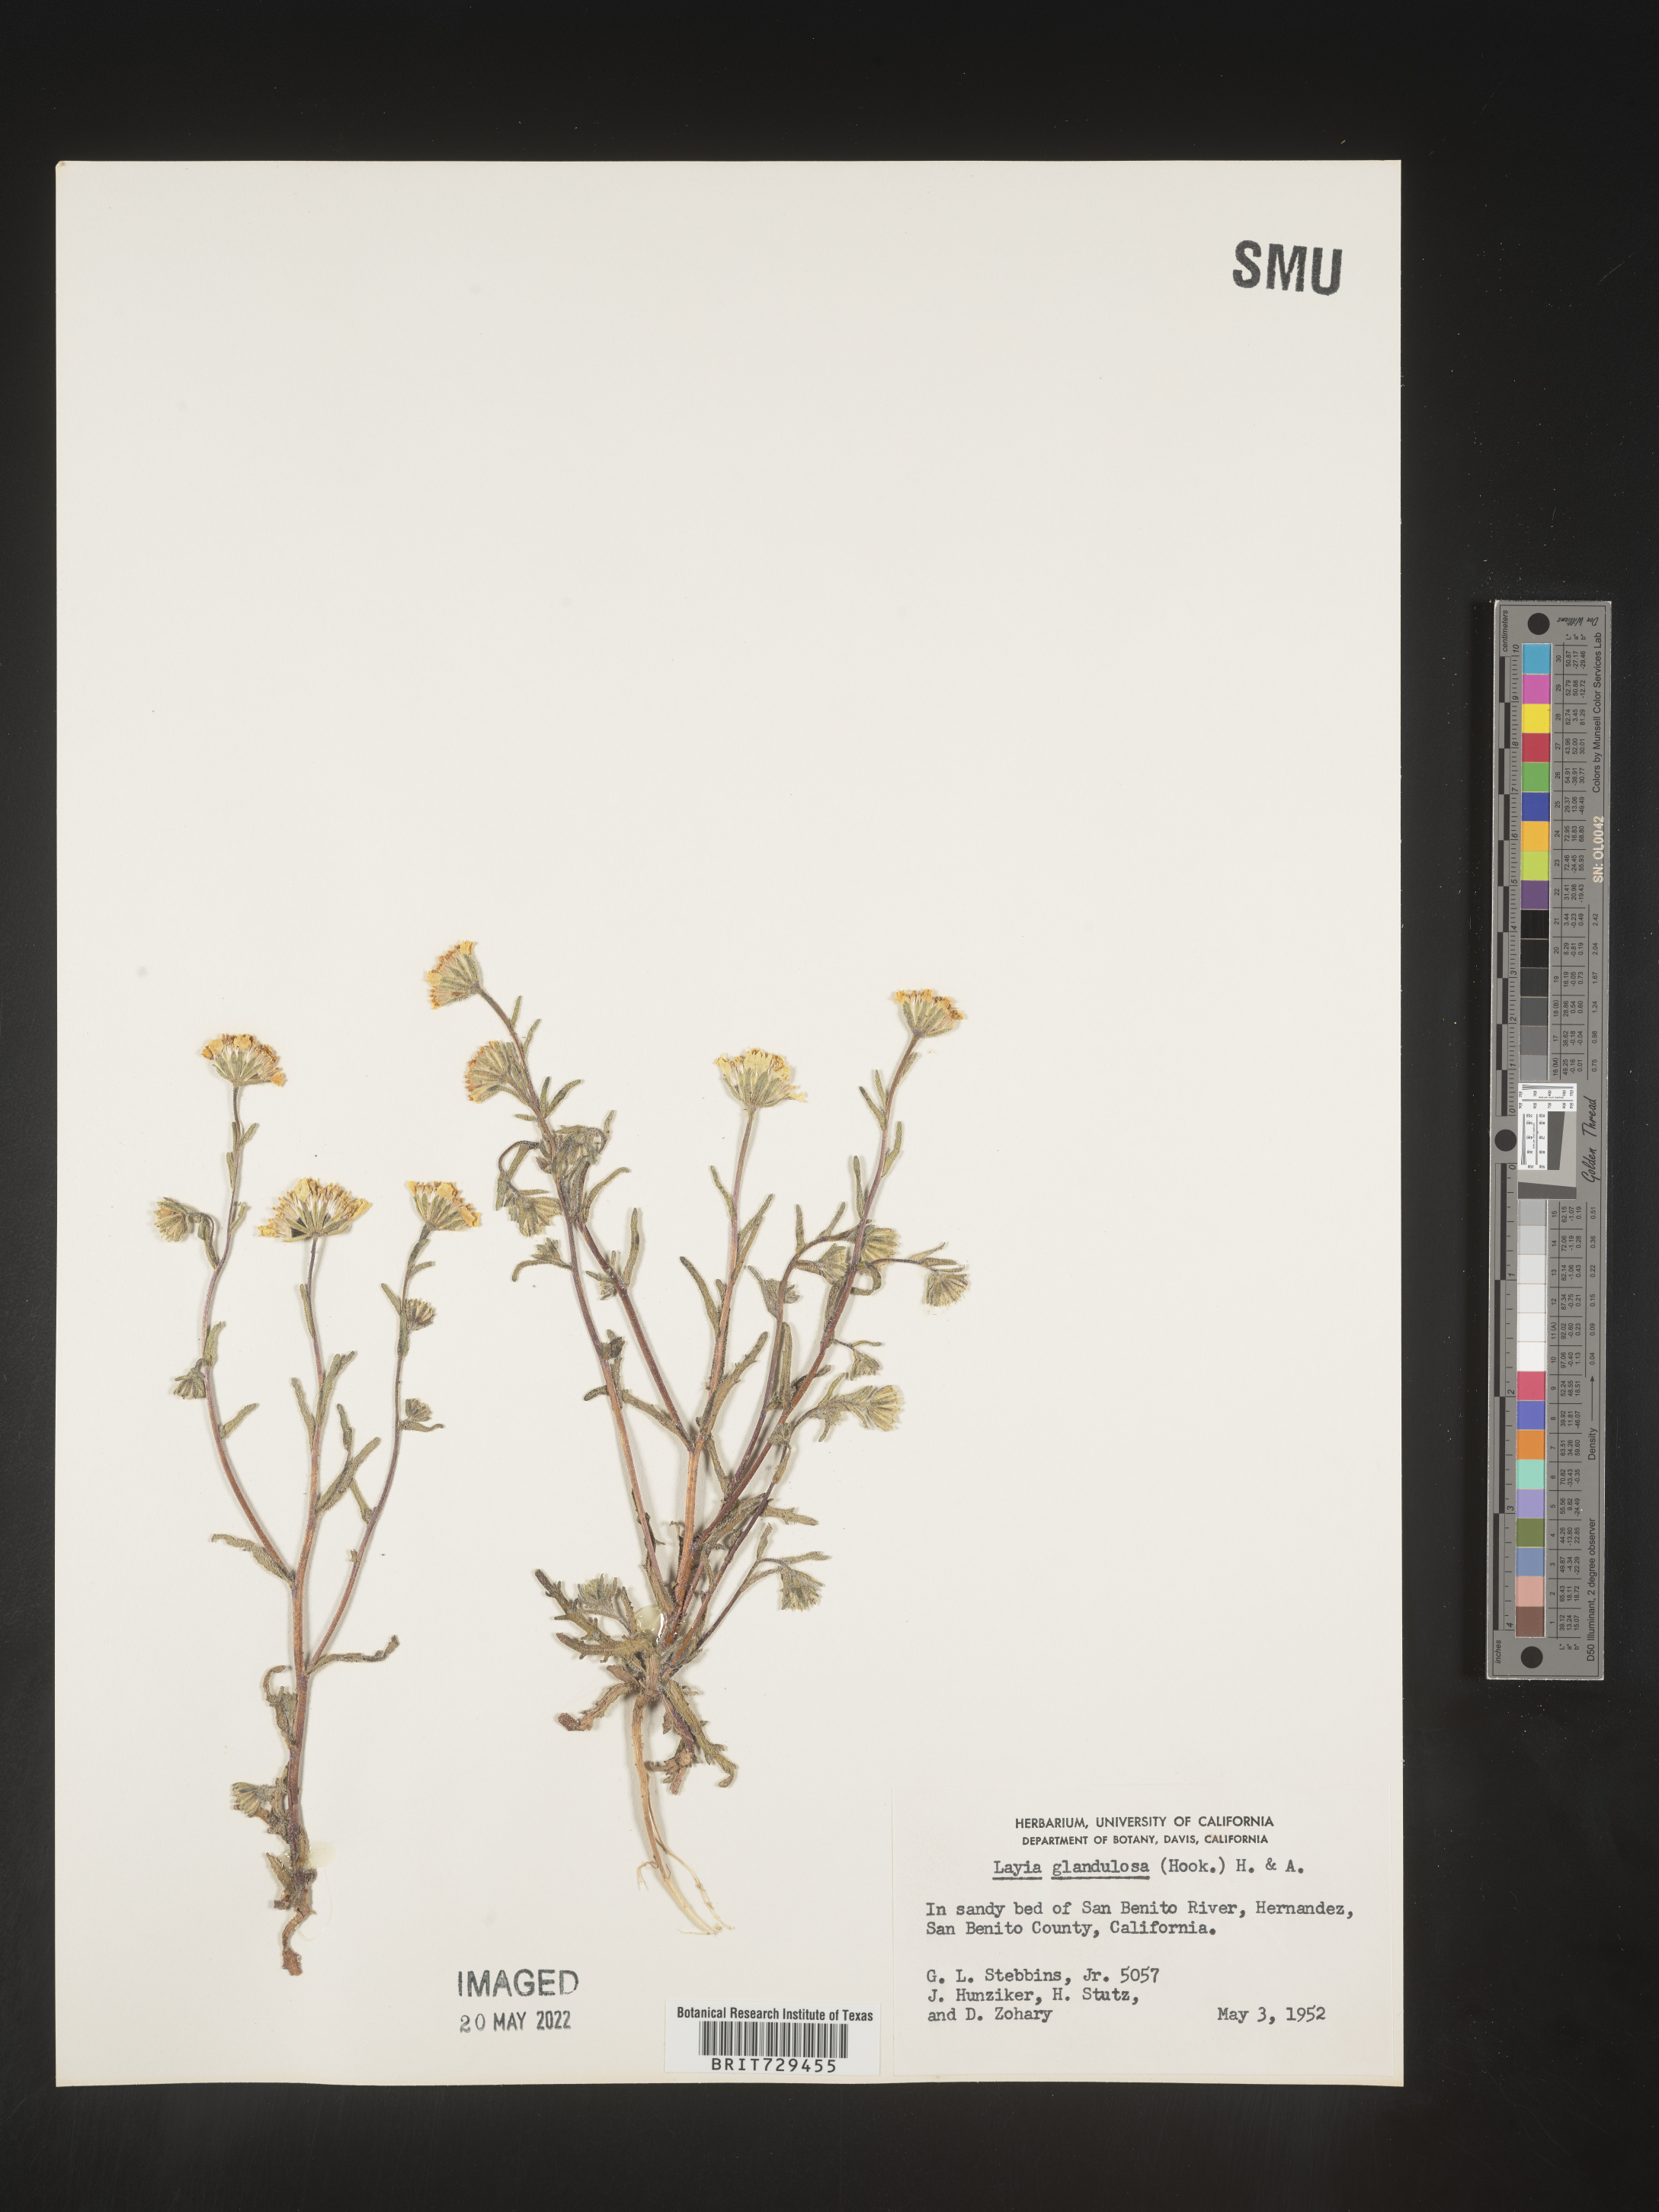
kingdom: Plantae
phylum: Tracheophyta
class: Magnoliopsida
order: Asterales
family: Asteraceae
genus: Layia
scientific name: Layia
